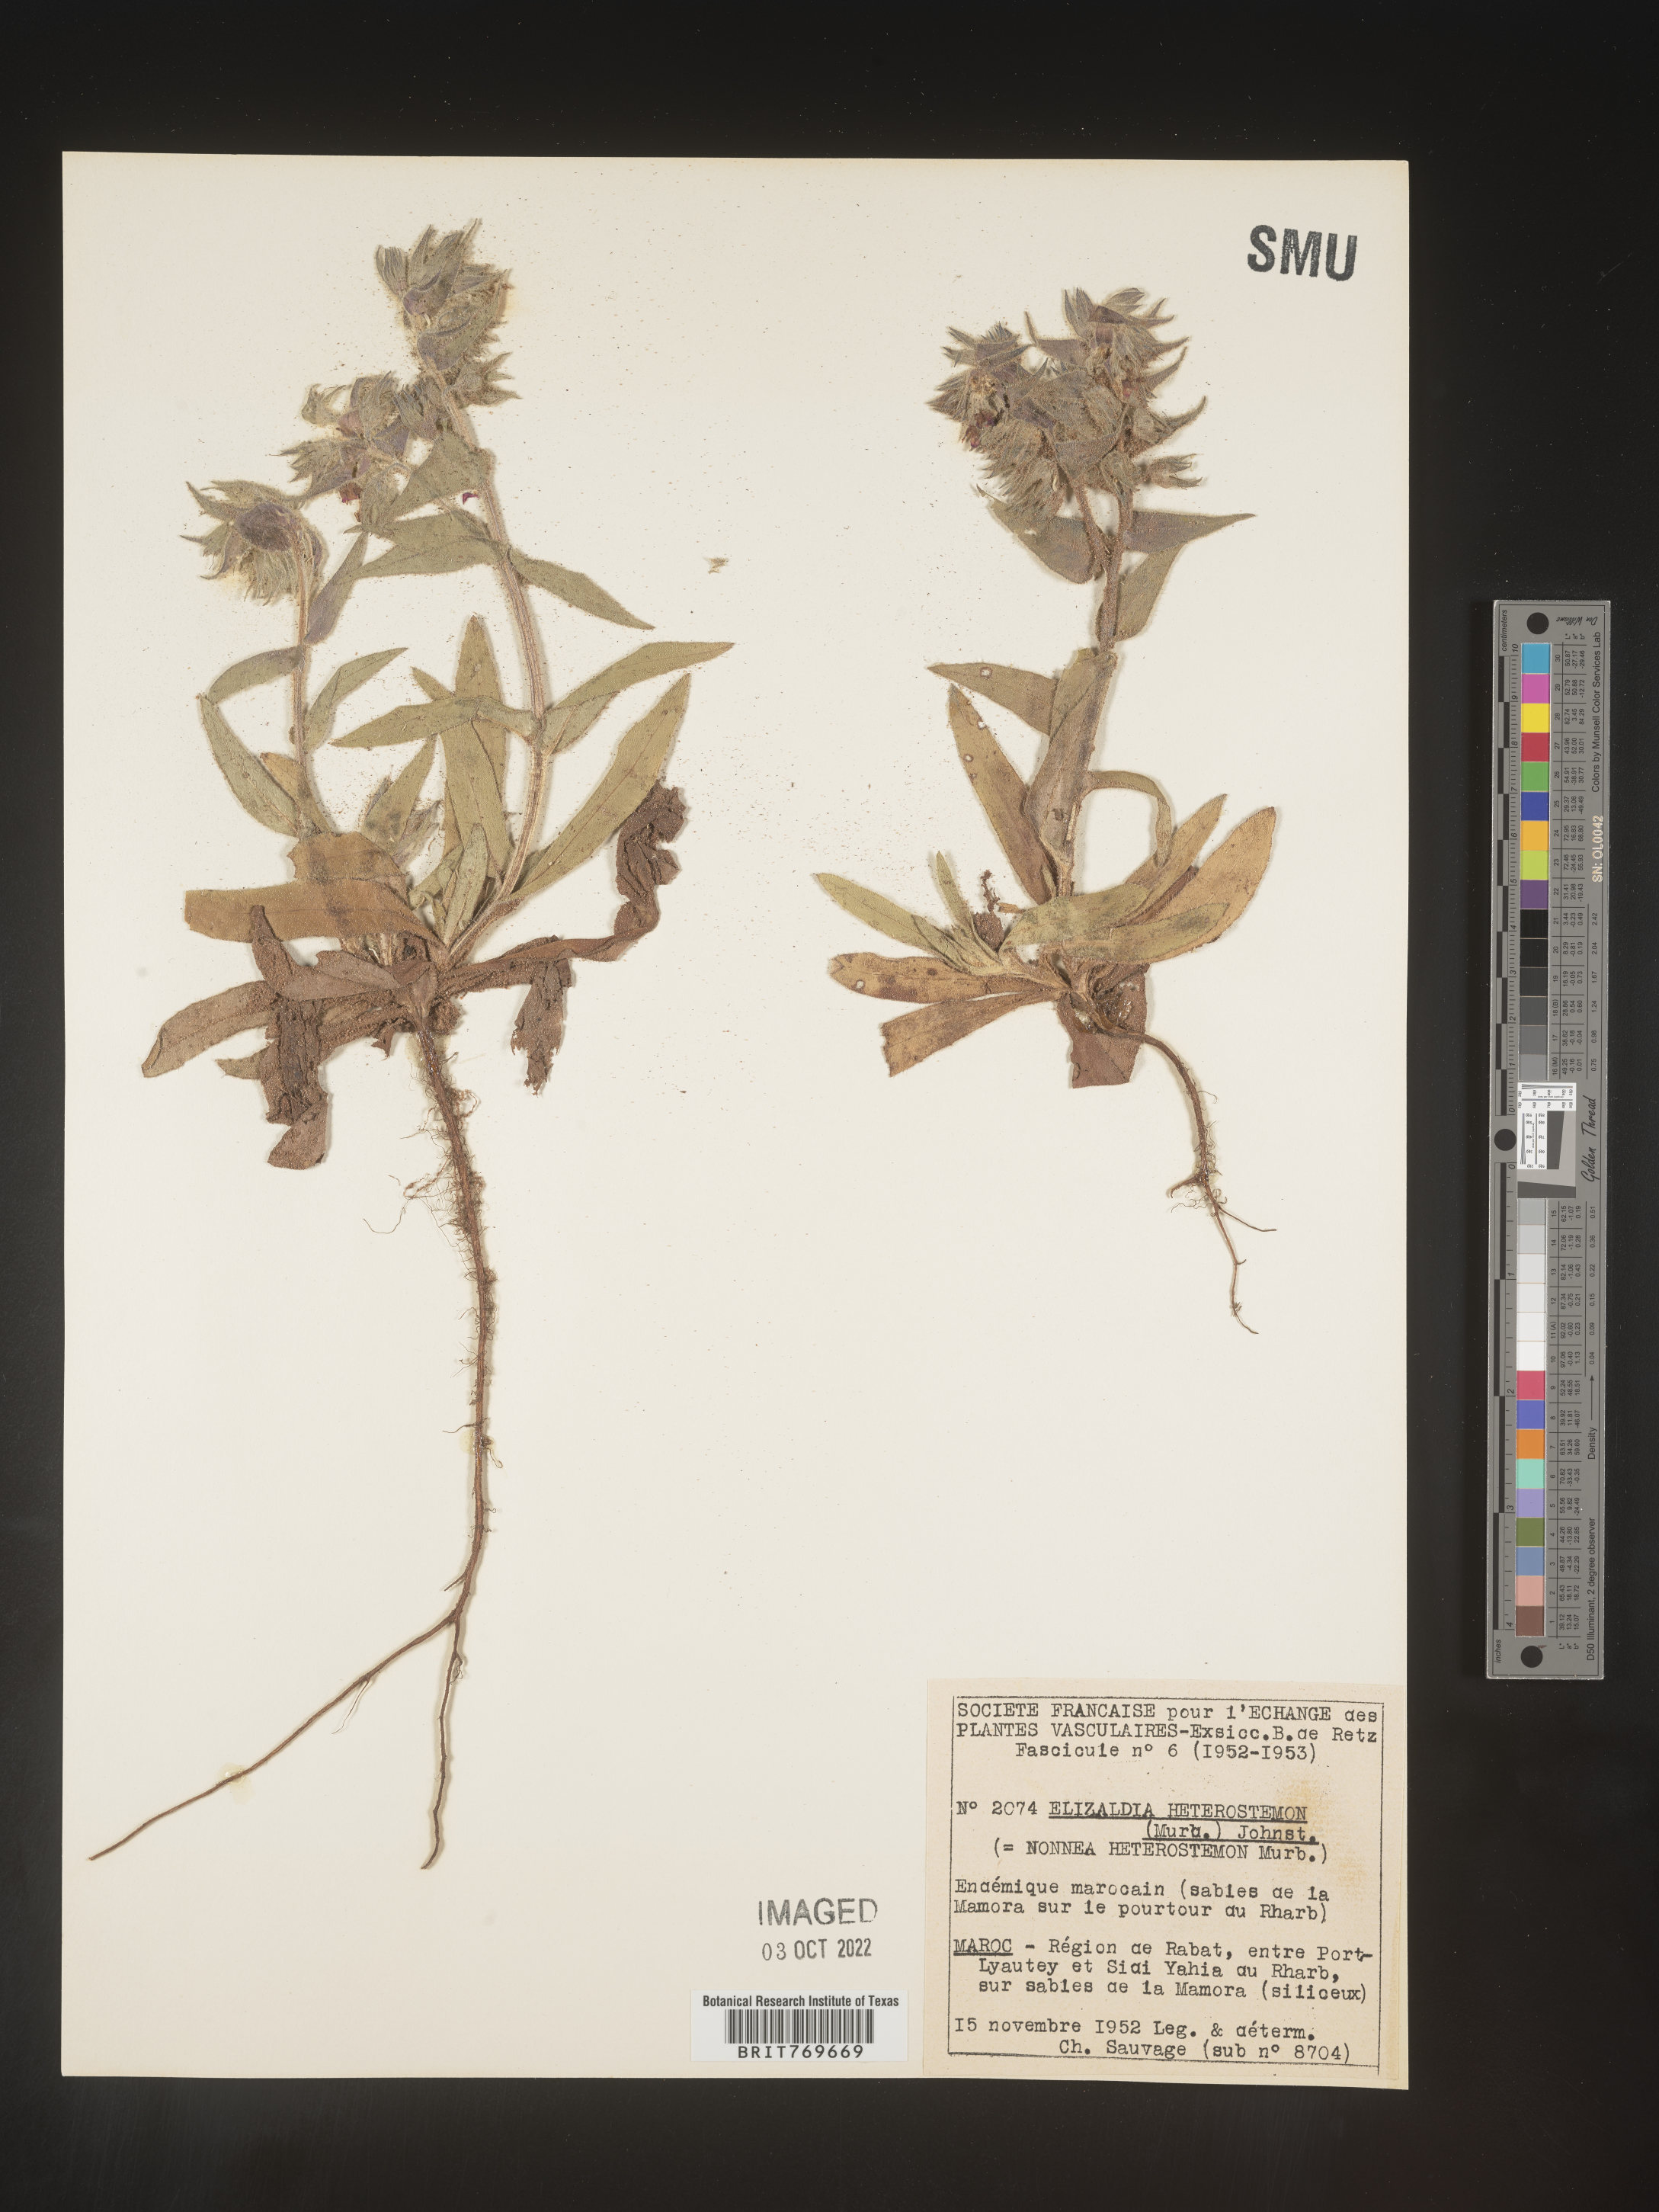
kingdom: Plantae
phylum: Tracheophyta
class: Magnoliopsida
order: Boraginales
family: Boraginaceae
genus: Nonea
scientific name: Nonea
